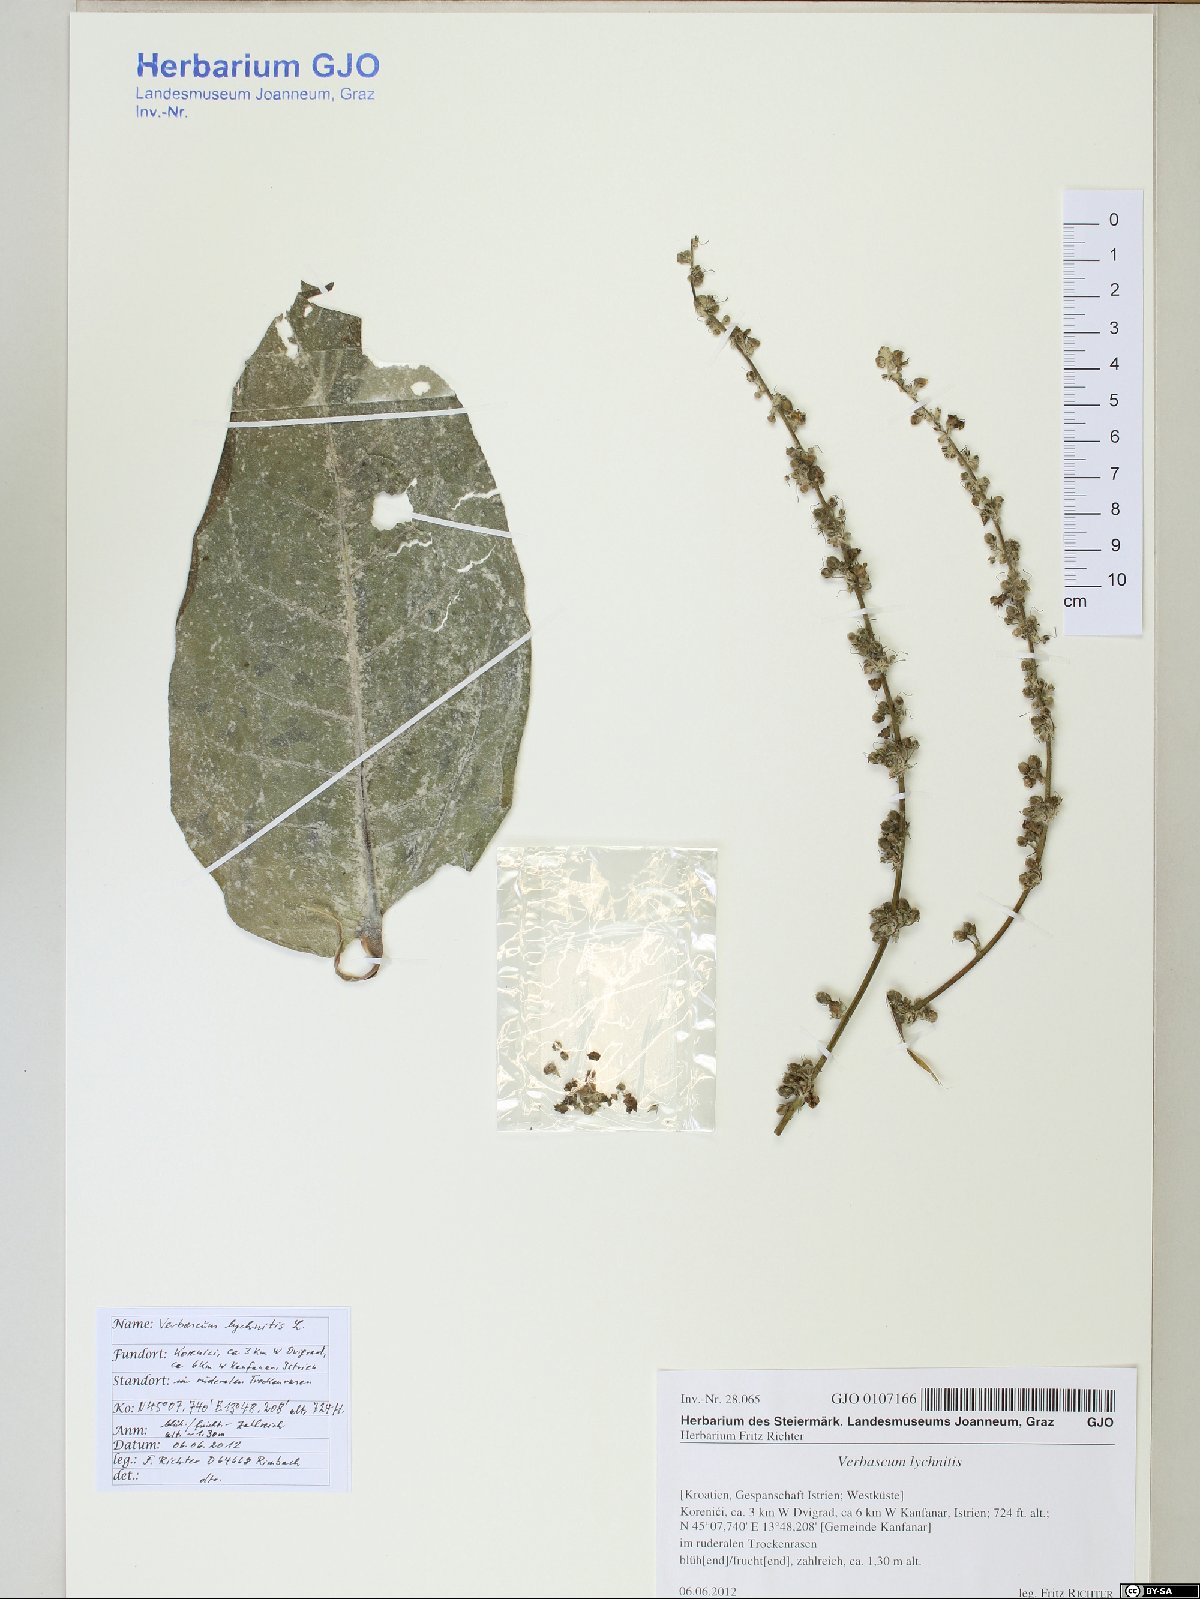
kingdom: Plantae
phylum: Tracheophyta
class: Magnoliopsida
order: Lamiales
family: Scrophulariaceae
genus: Verbascum
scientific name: Verbascum pulverulentum
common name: Broad-leaf mullein
